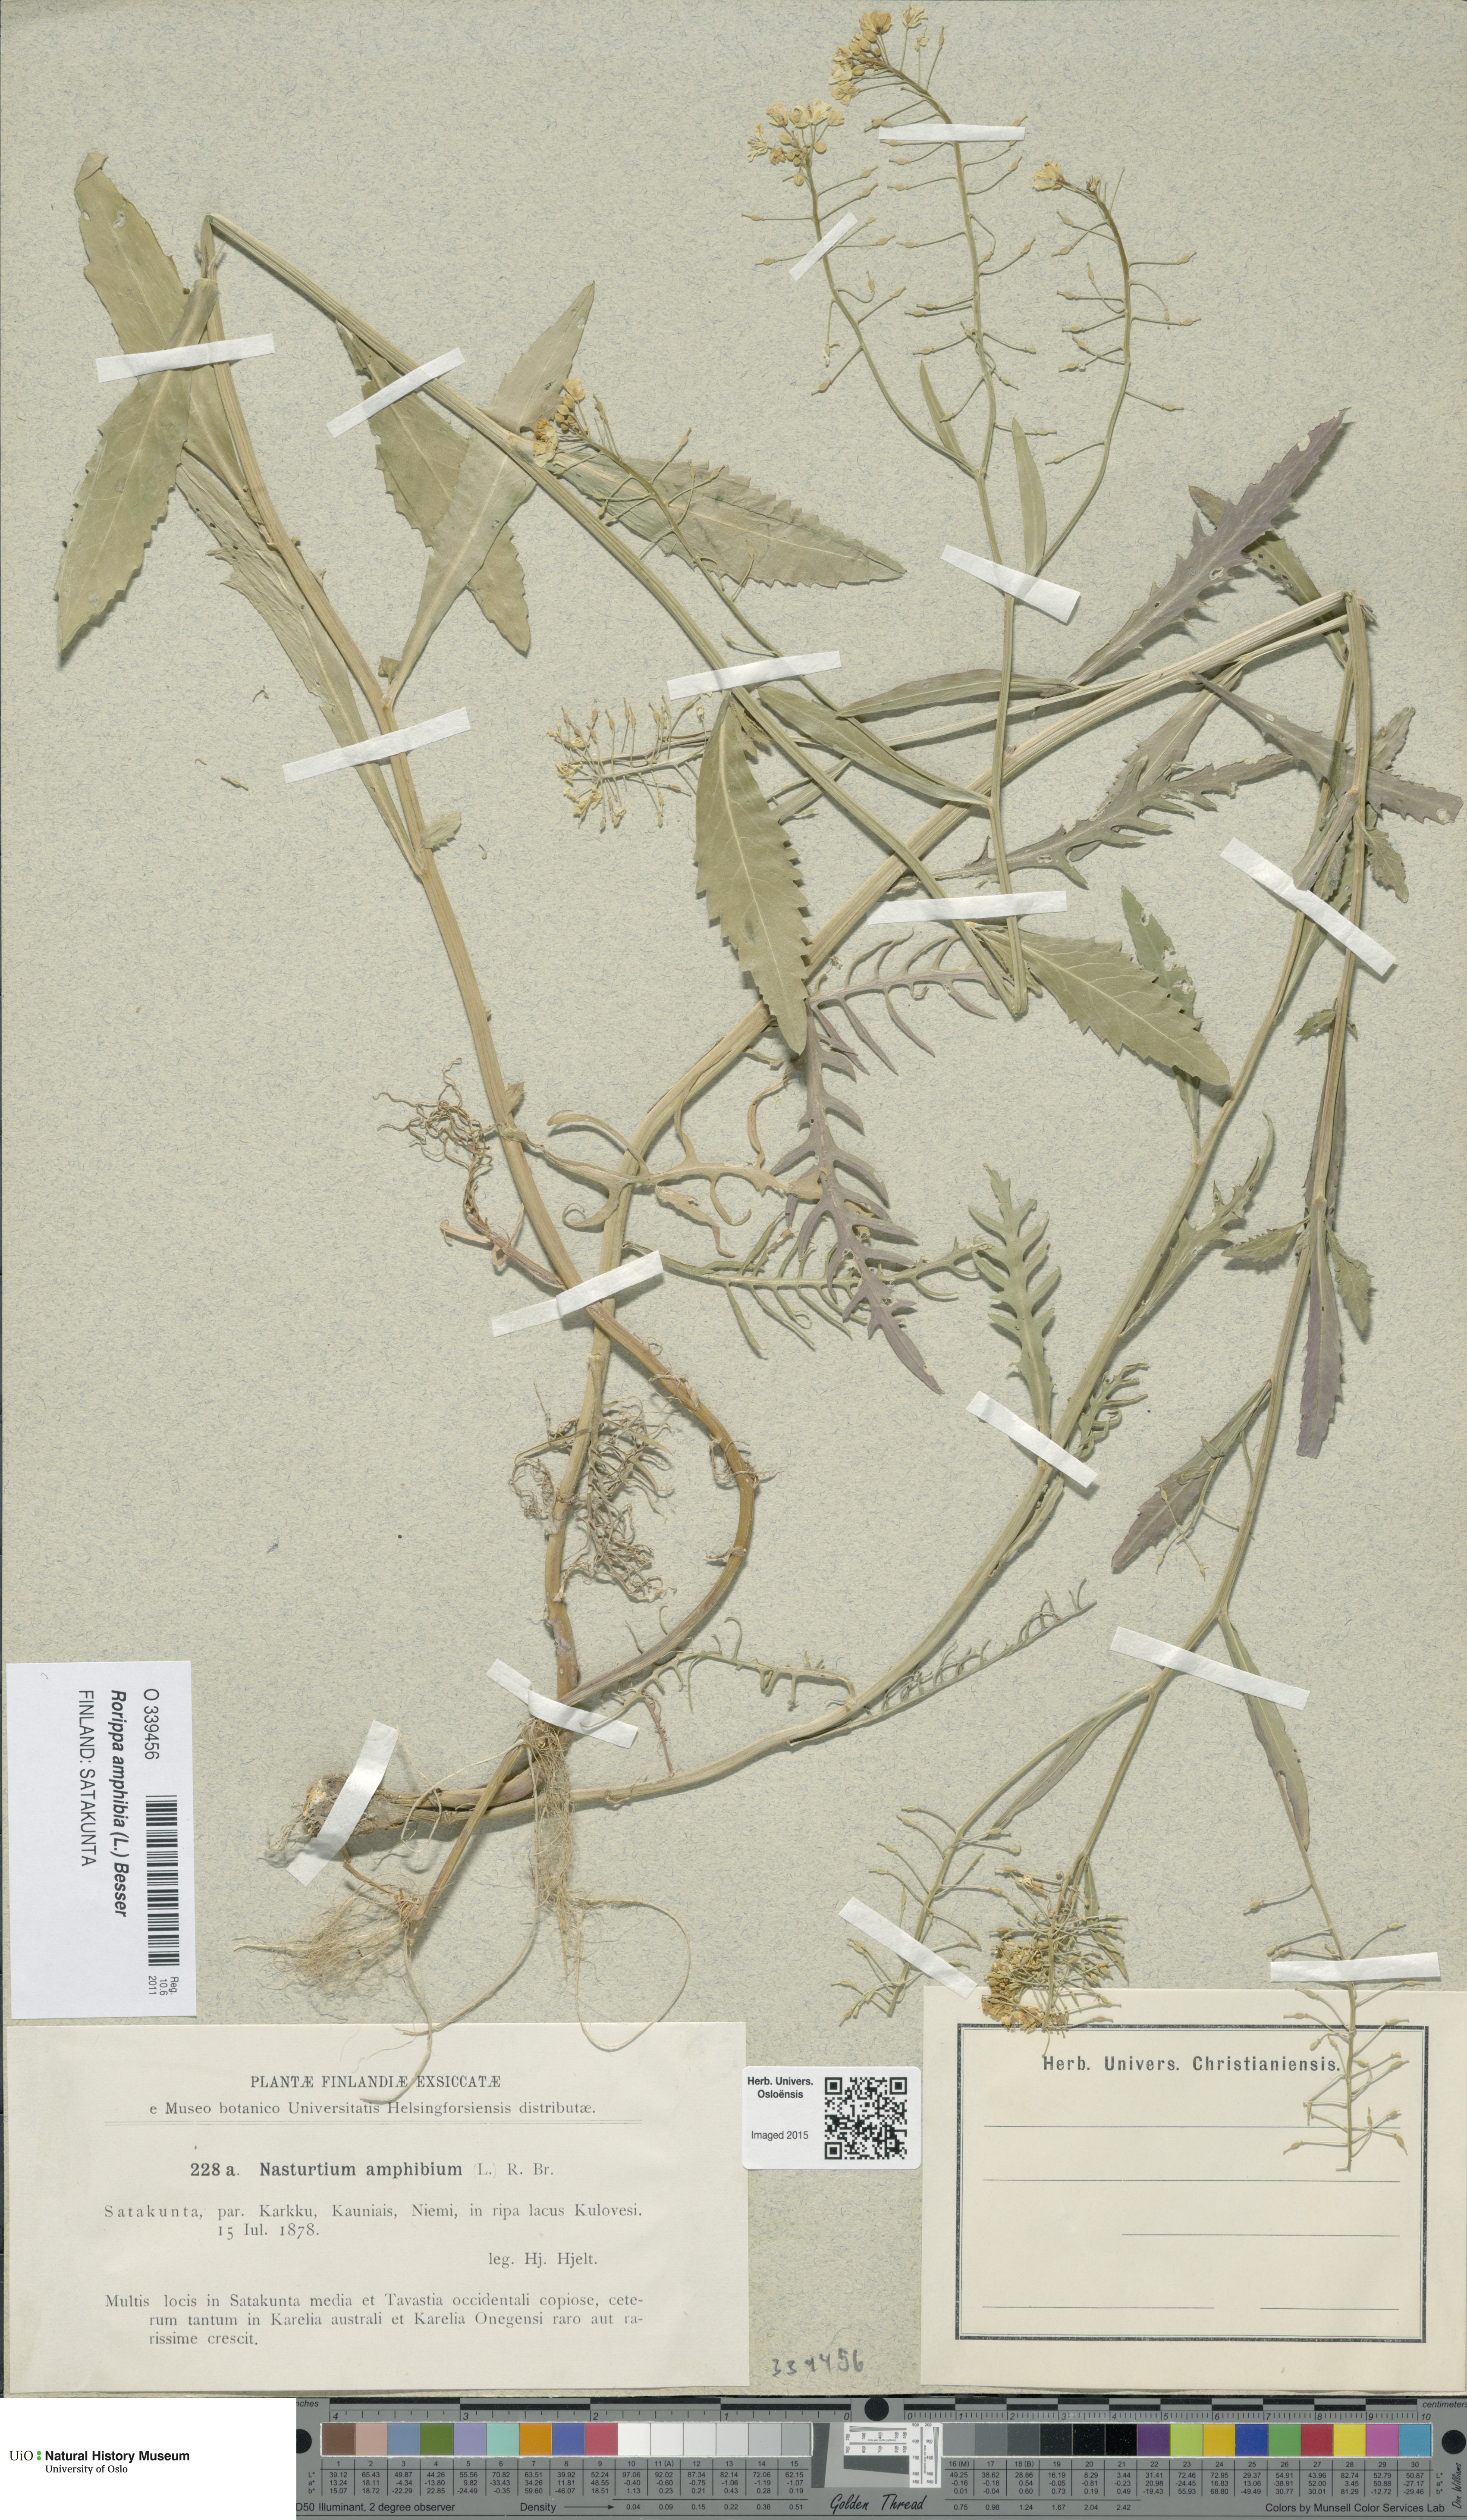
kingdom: Plantae
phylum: Tracheophyta
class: Magnoliopsida
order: Brassicales
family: Brassicaceae
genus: Rorippa
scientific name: Rorippa amphibia
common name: Great yellow-cress
